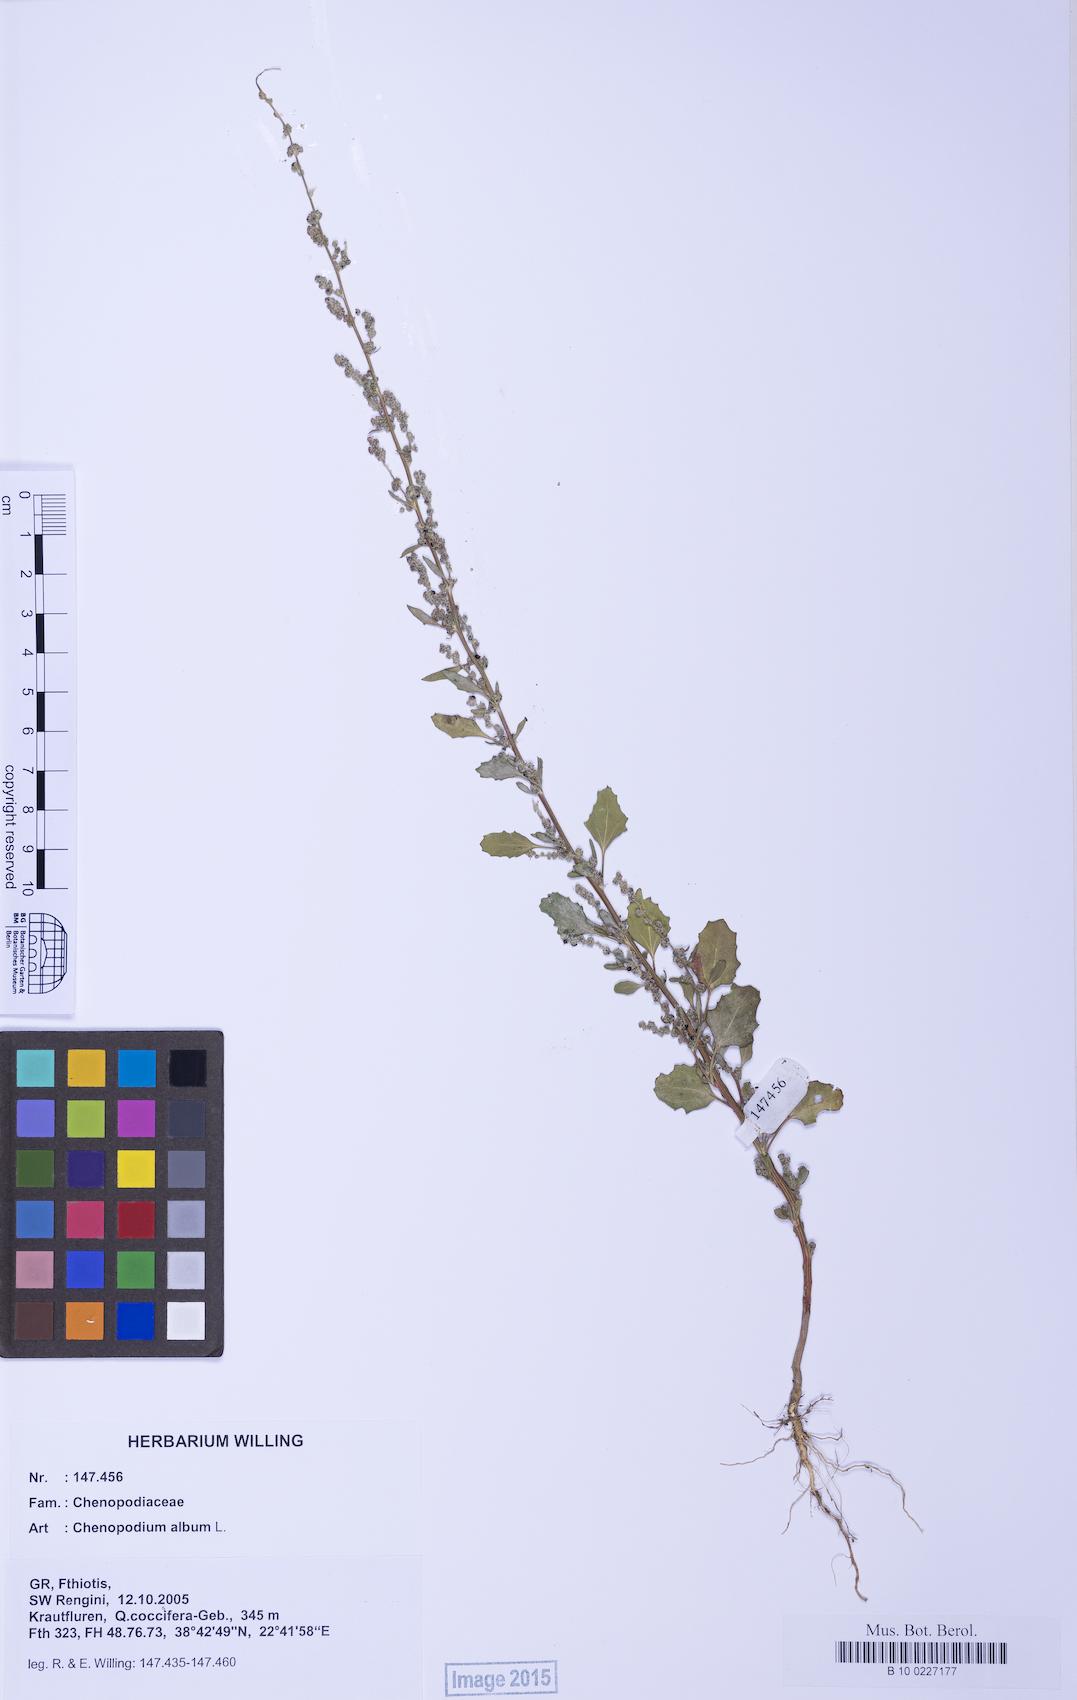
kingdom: Plantae
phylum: Tracheophyta
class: Magnoliopsida
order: Caryophyllales
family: Amaranthaceae
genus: Chenopodium
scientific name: Chenopodium album
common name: Fat-hen
